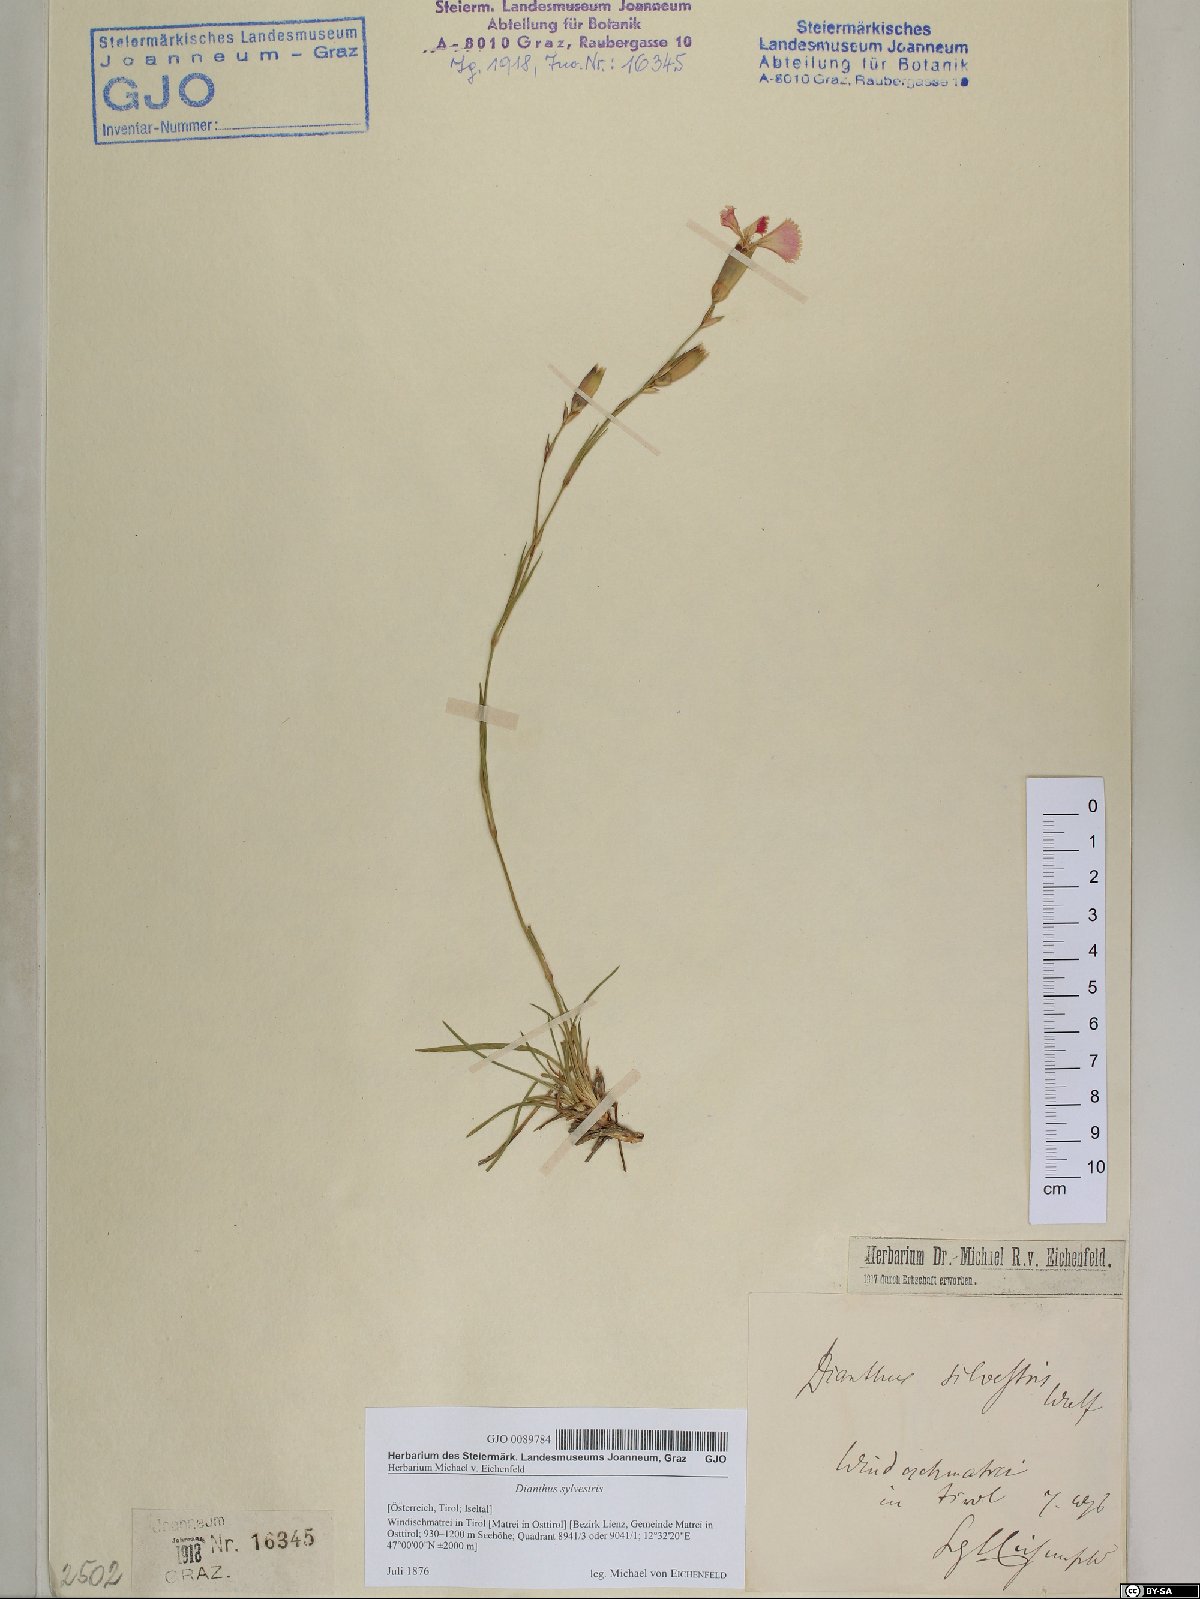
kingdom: Plantae
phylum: Tracheophyta
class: Magnoliopsida
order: Caryophyllales
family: Caryophyllaceae
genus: Dianthus
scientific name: Dianthus sylvestris
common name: Wood pink
